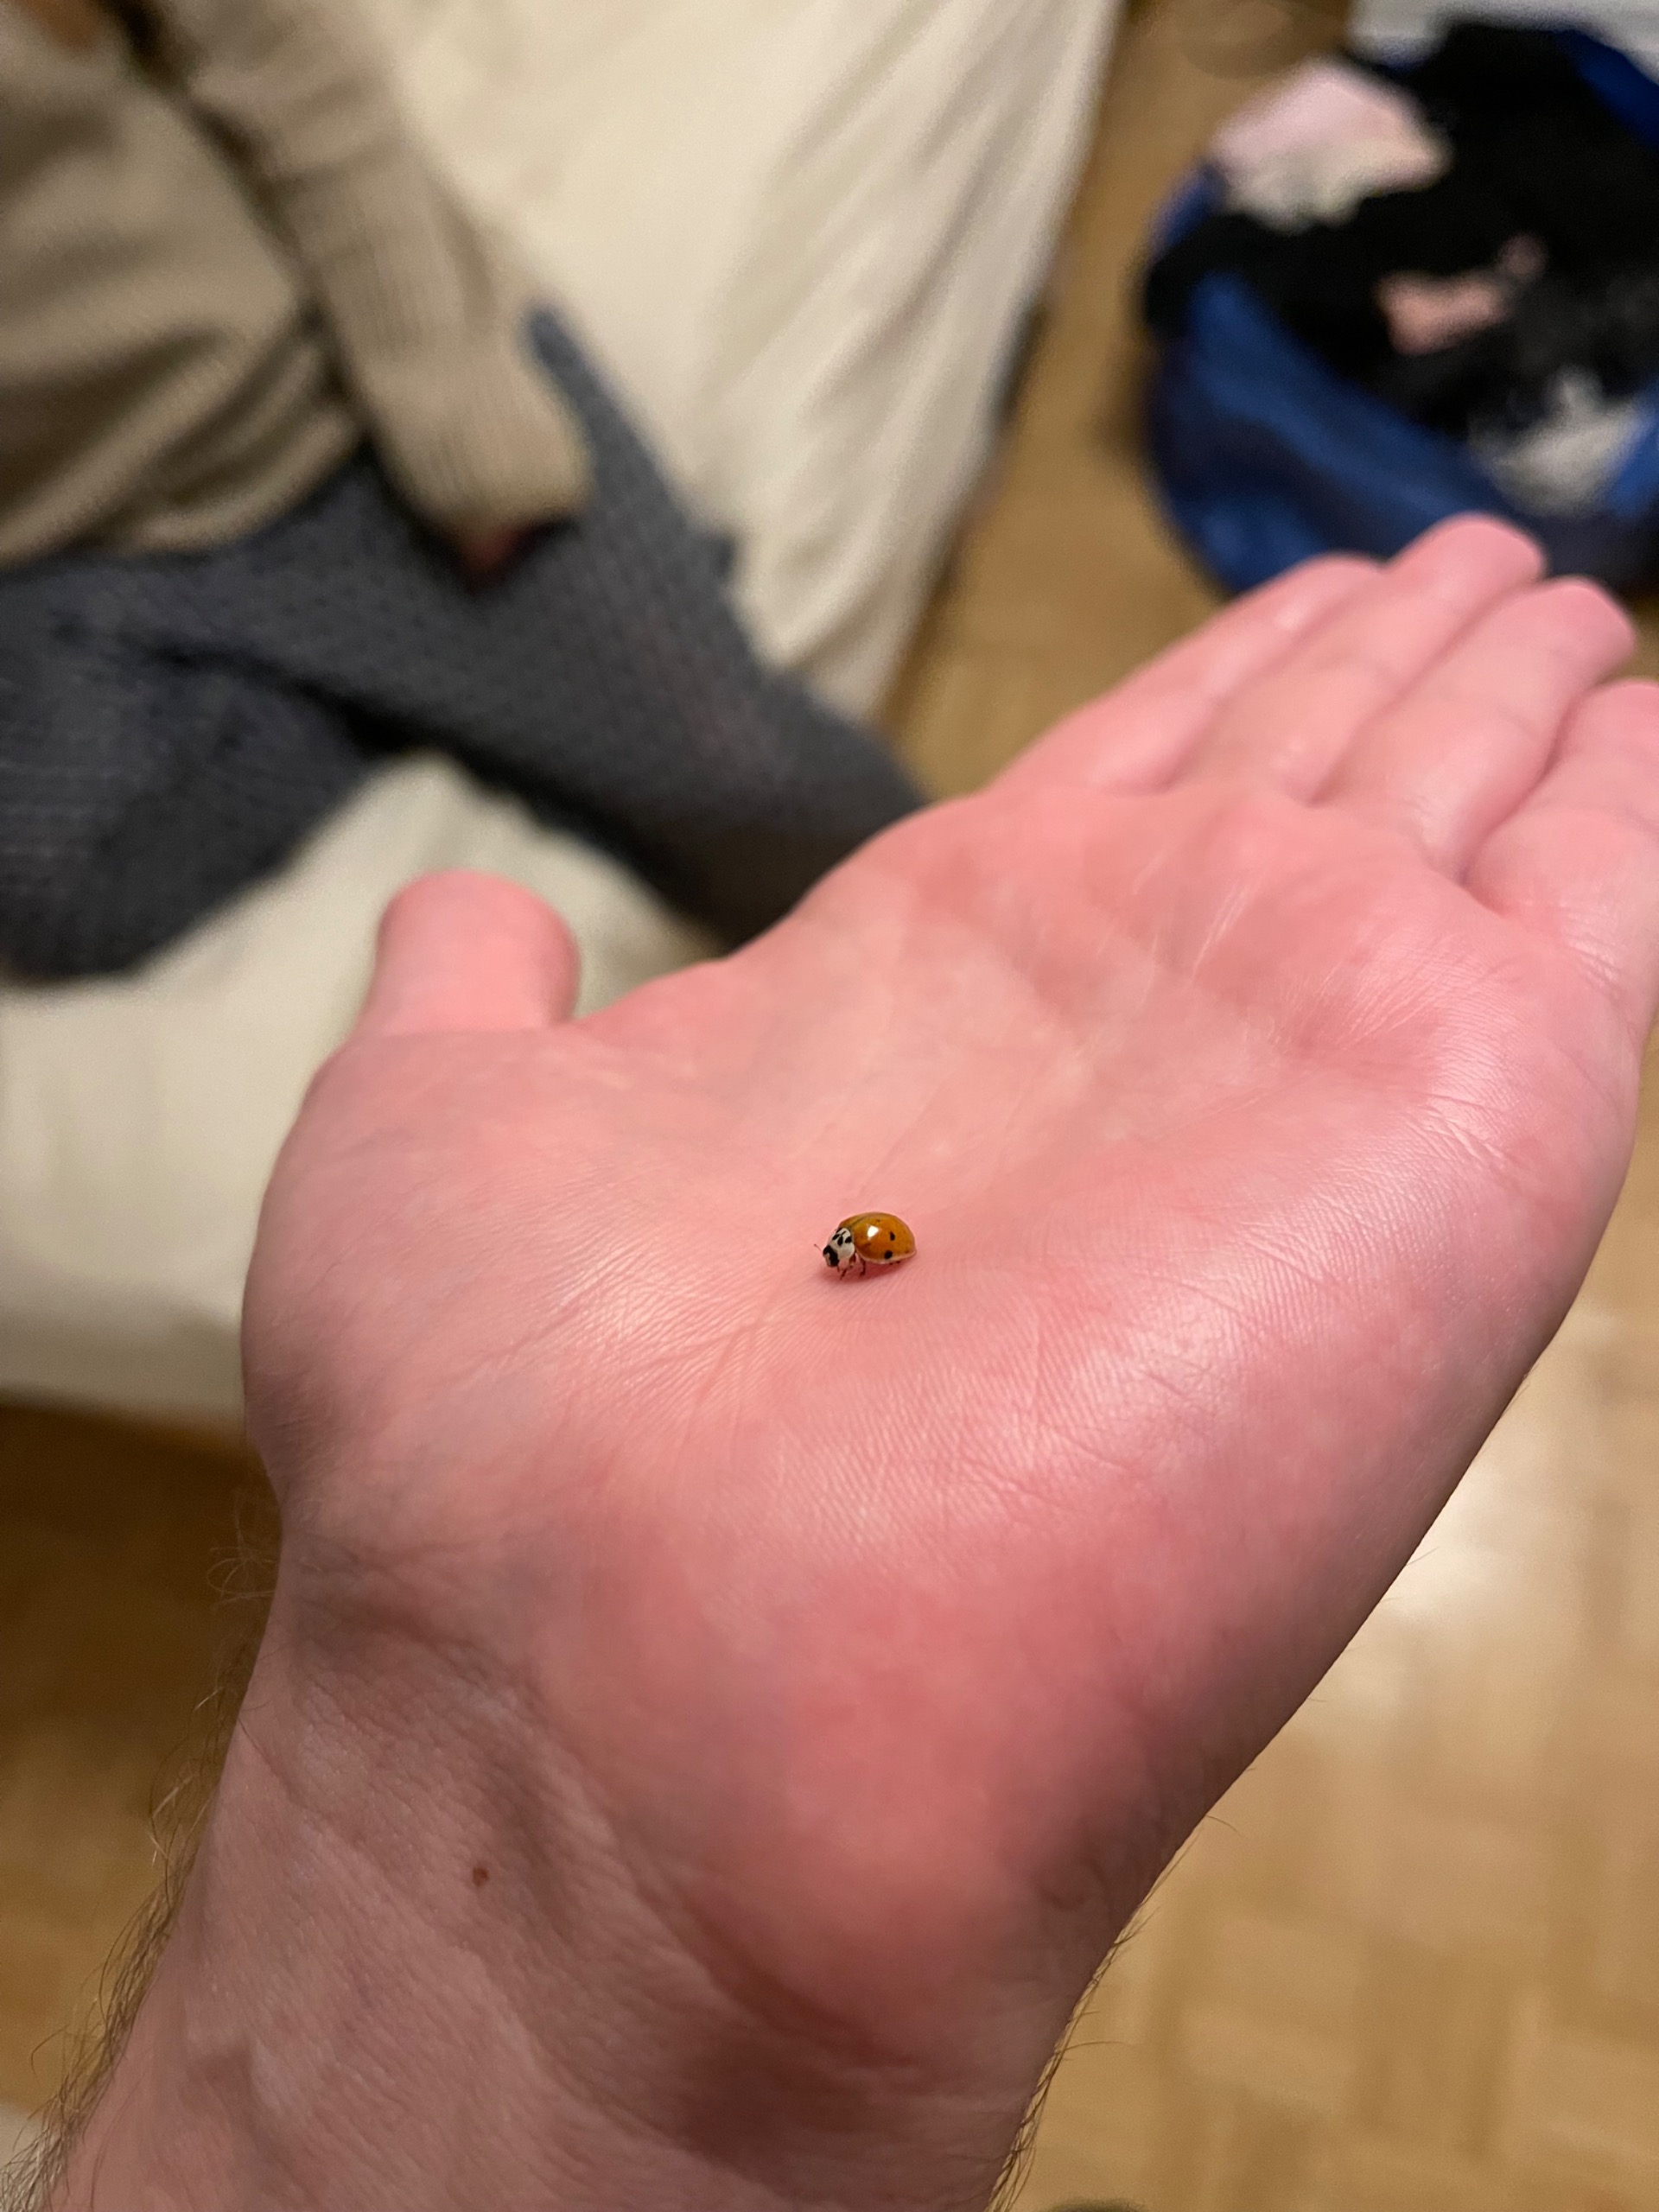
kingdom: Animalia
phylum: Arthropoda
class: Insecta
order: Coleoptera
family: Coccinellidae
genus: Harmonia
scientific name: Harmonia axyridis
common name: Harlekinmariehøne
